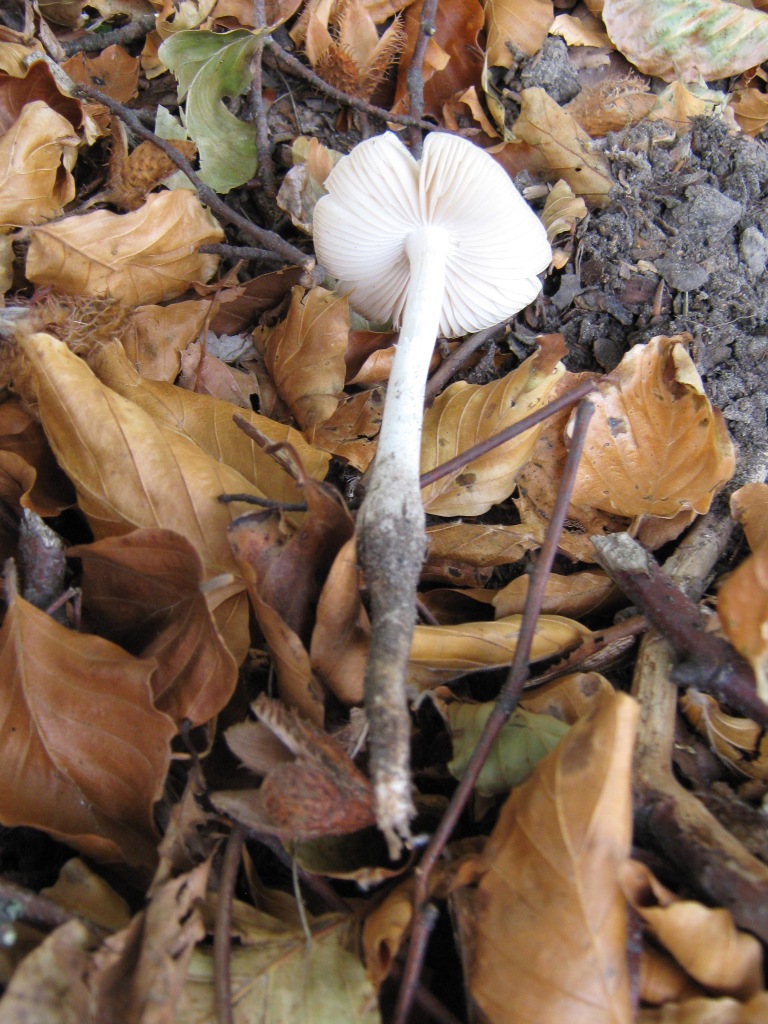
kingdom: Fungi
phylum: Basidiomycota
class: Agaricomycetes
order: Agaricales
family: Physalacriaceae
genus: Hymenopellis
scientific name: Hymenopellis radicata
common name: almindelig pælerodshat
